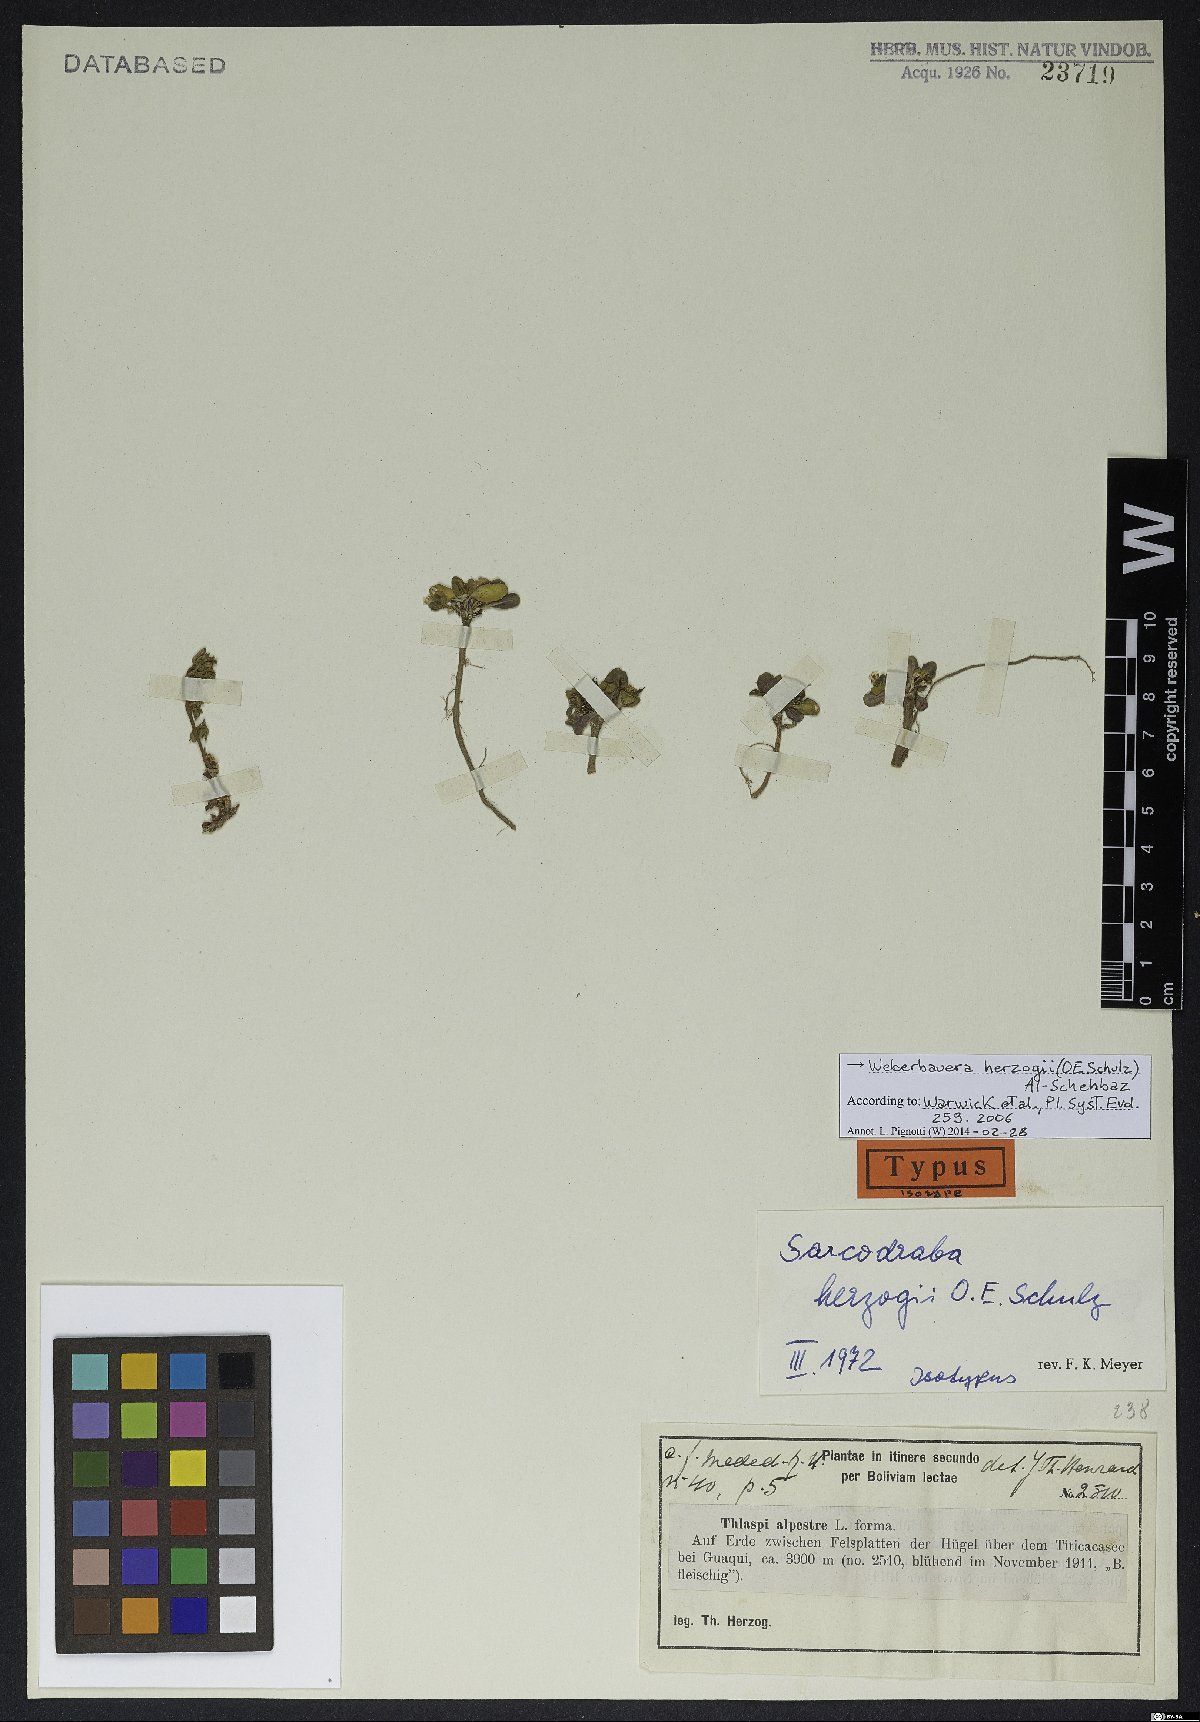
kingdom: Plantae
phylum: Tracheophyta
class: Magnoliopsida
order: Brassicales
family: Brassicaceae
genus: Weberbauera
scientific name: Weberbauera herzogii
